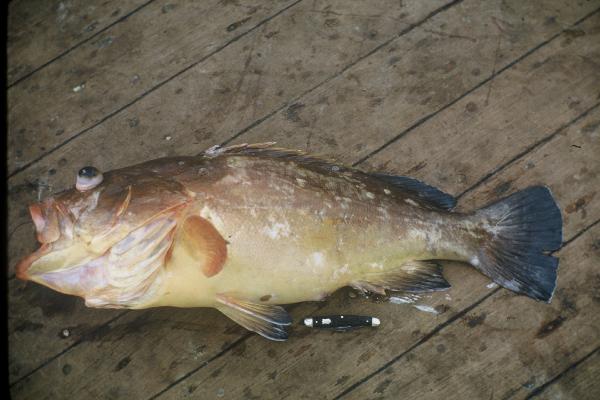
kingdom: Animalia
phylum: Chordata
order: Perciformes
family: Serranidae
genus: Epinephelus
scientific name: Epinephelus marginatus
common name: Dusky grouper
